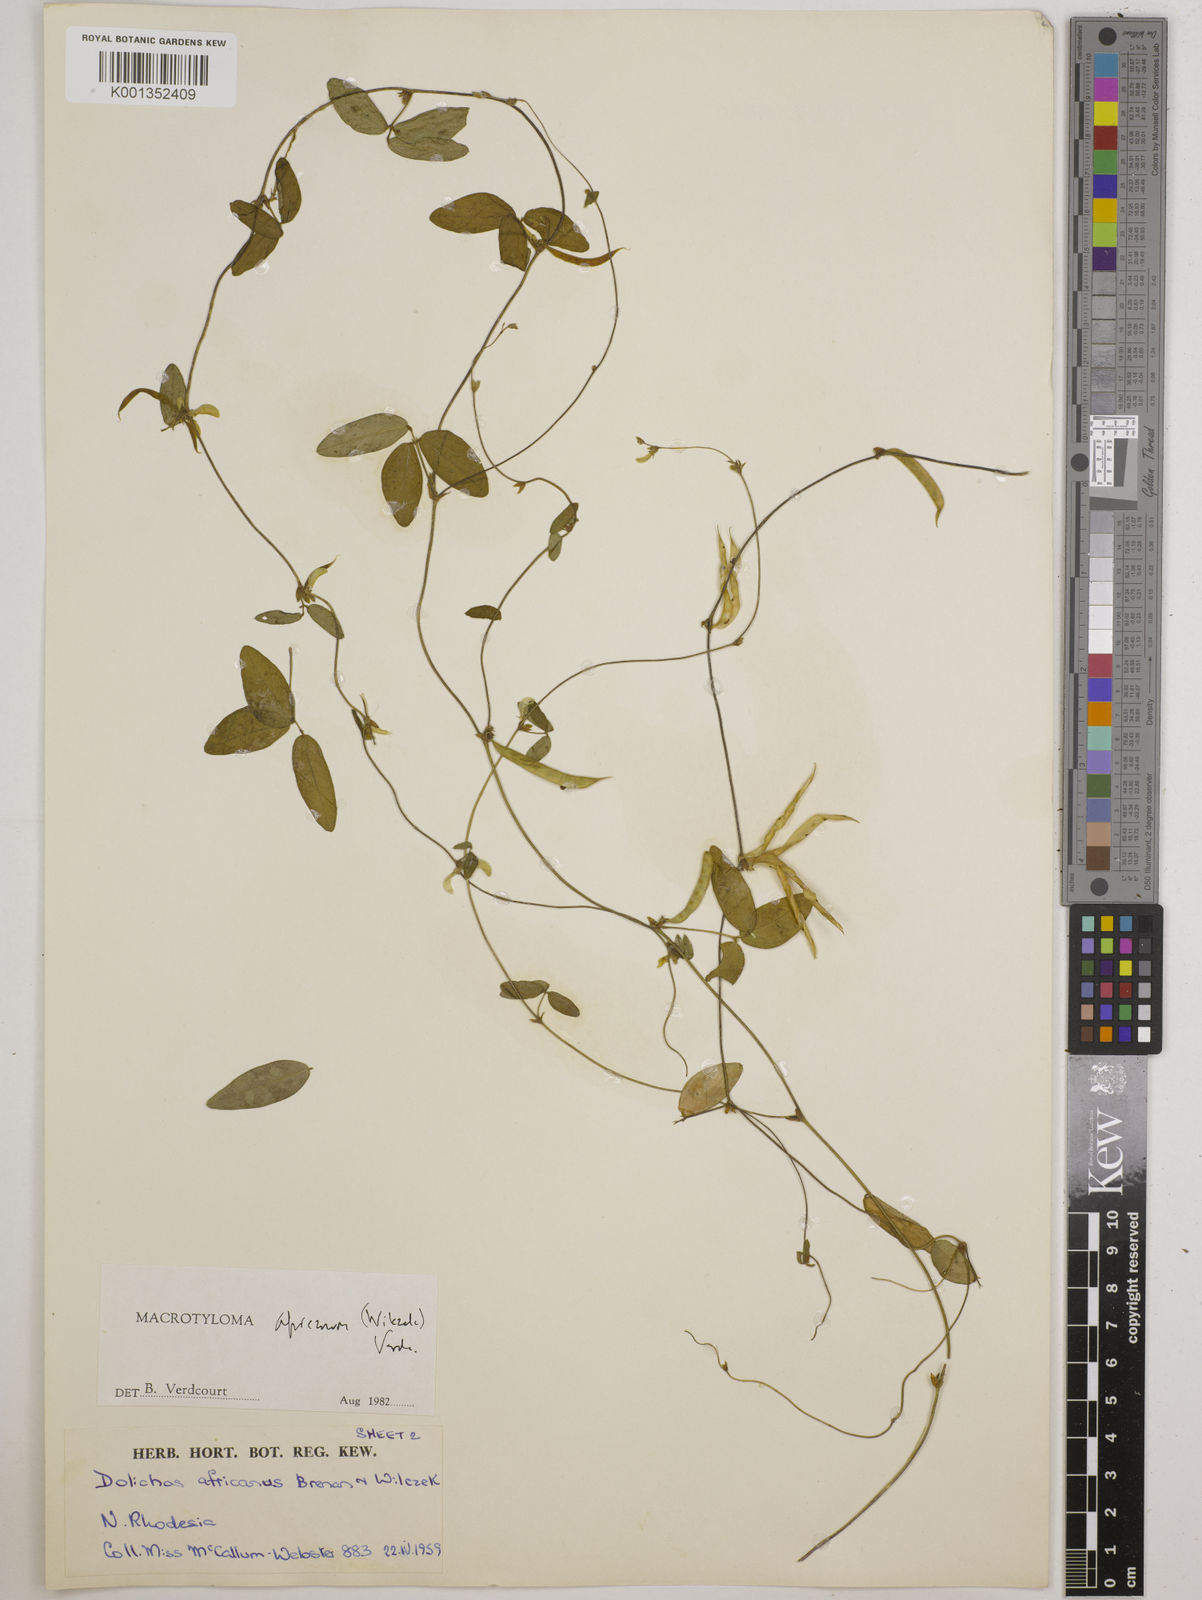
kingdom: Plantae
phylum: Tracheophyta
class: Magnoliopsida
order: Fabales
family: Fabaceae
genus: Macrotyloma
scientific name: Macrotyloma africanum
